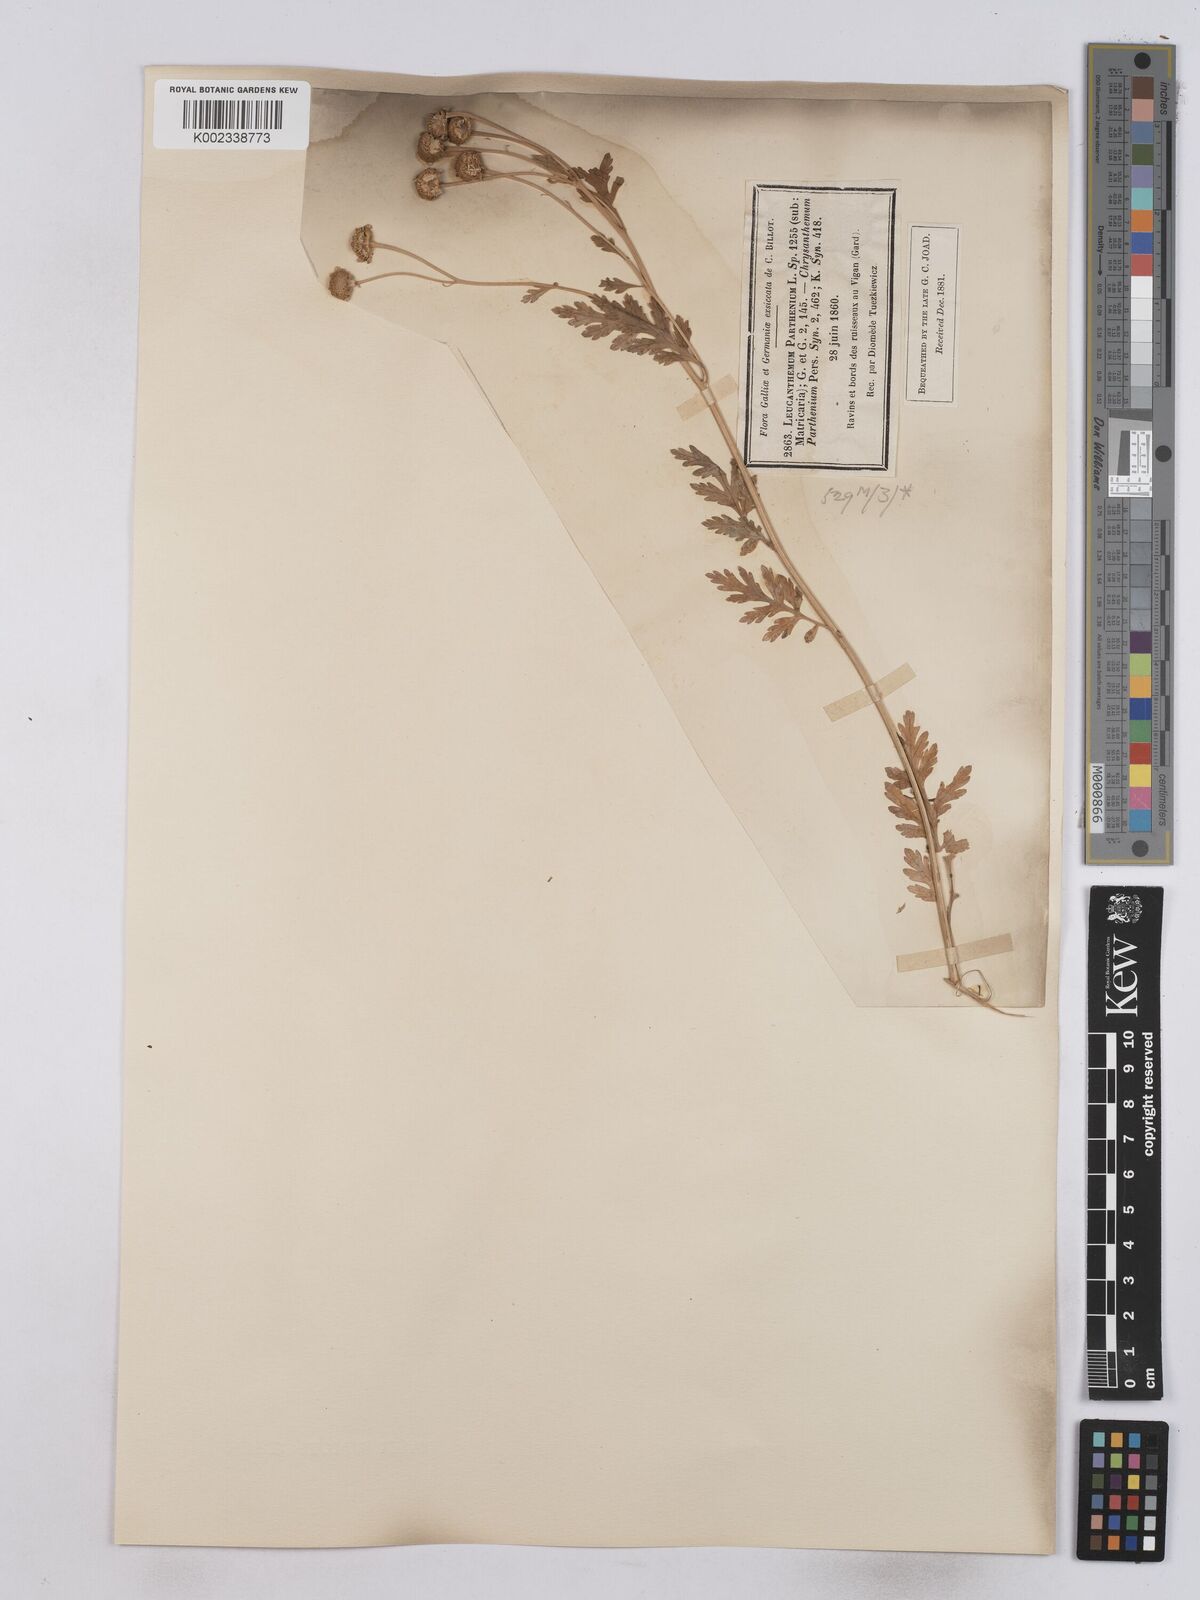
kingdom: Plantae
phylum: Tracheophyta
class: Magnoliopsida
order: Asterales
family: Asteraceae
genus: Tanacetum
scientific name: Tanacetum parthenium
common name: Feverfew
